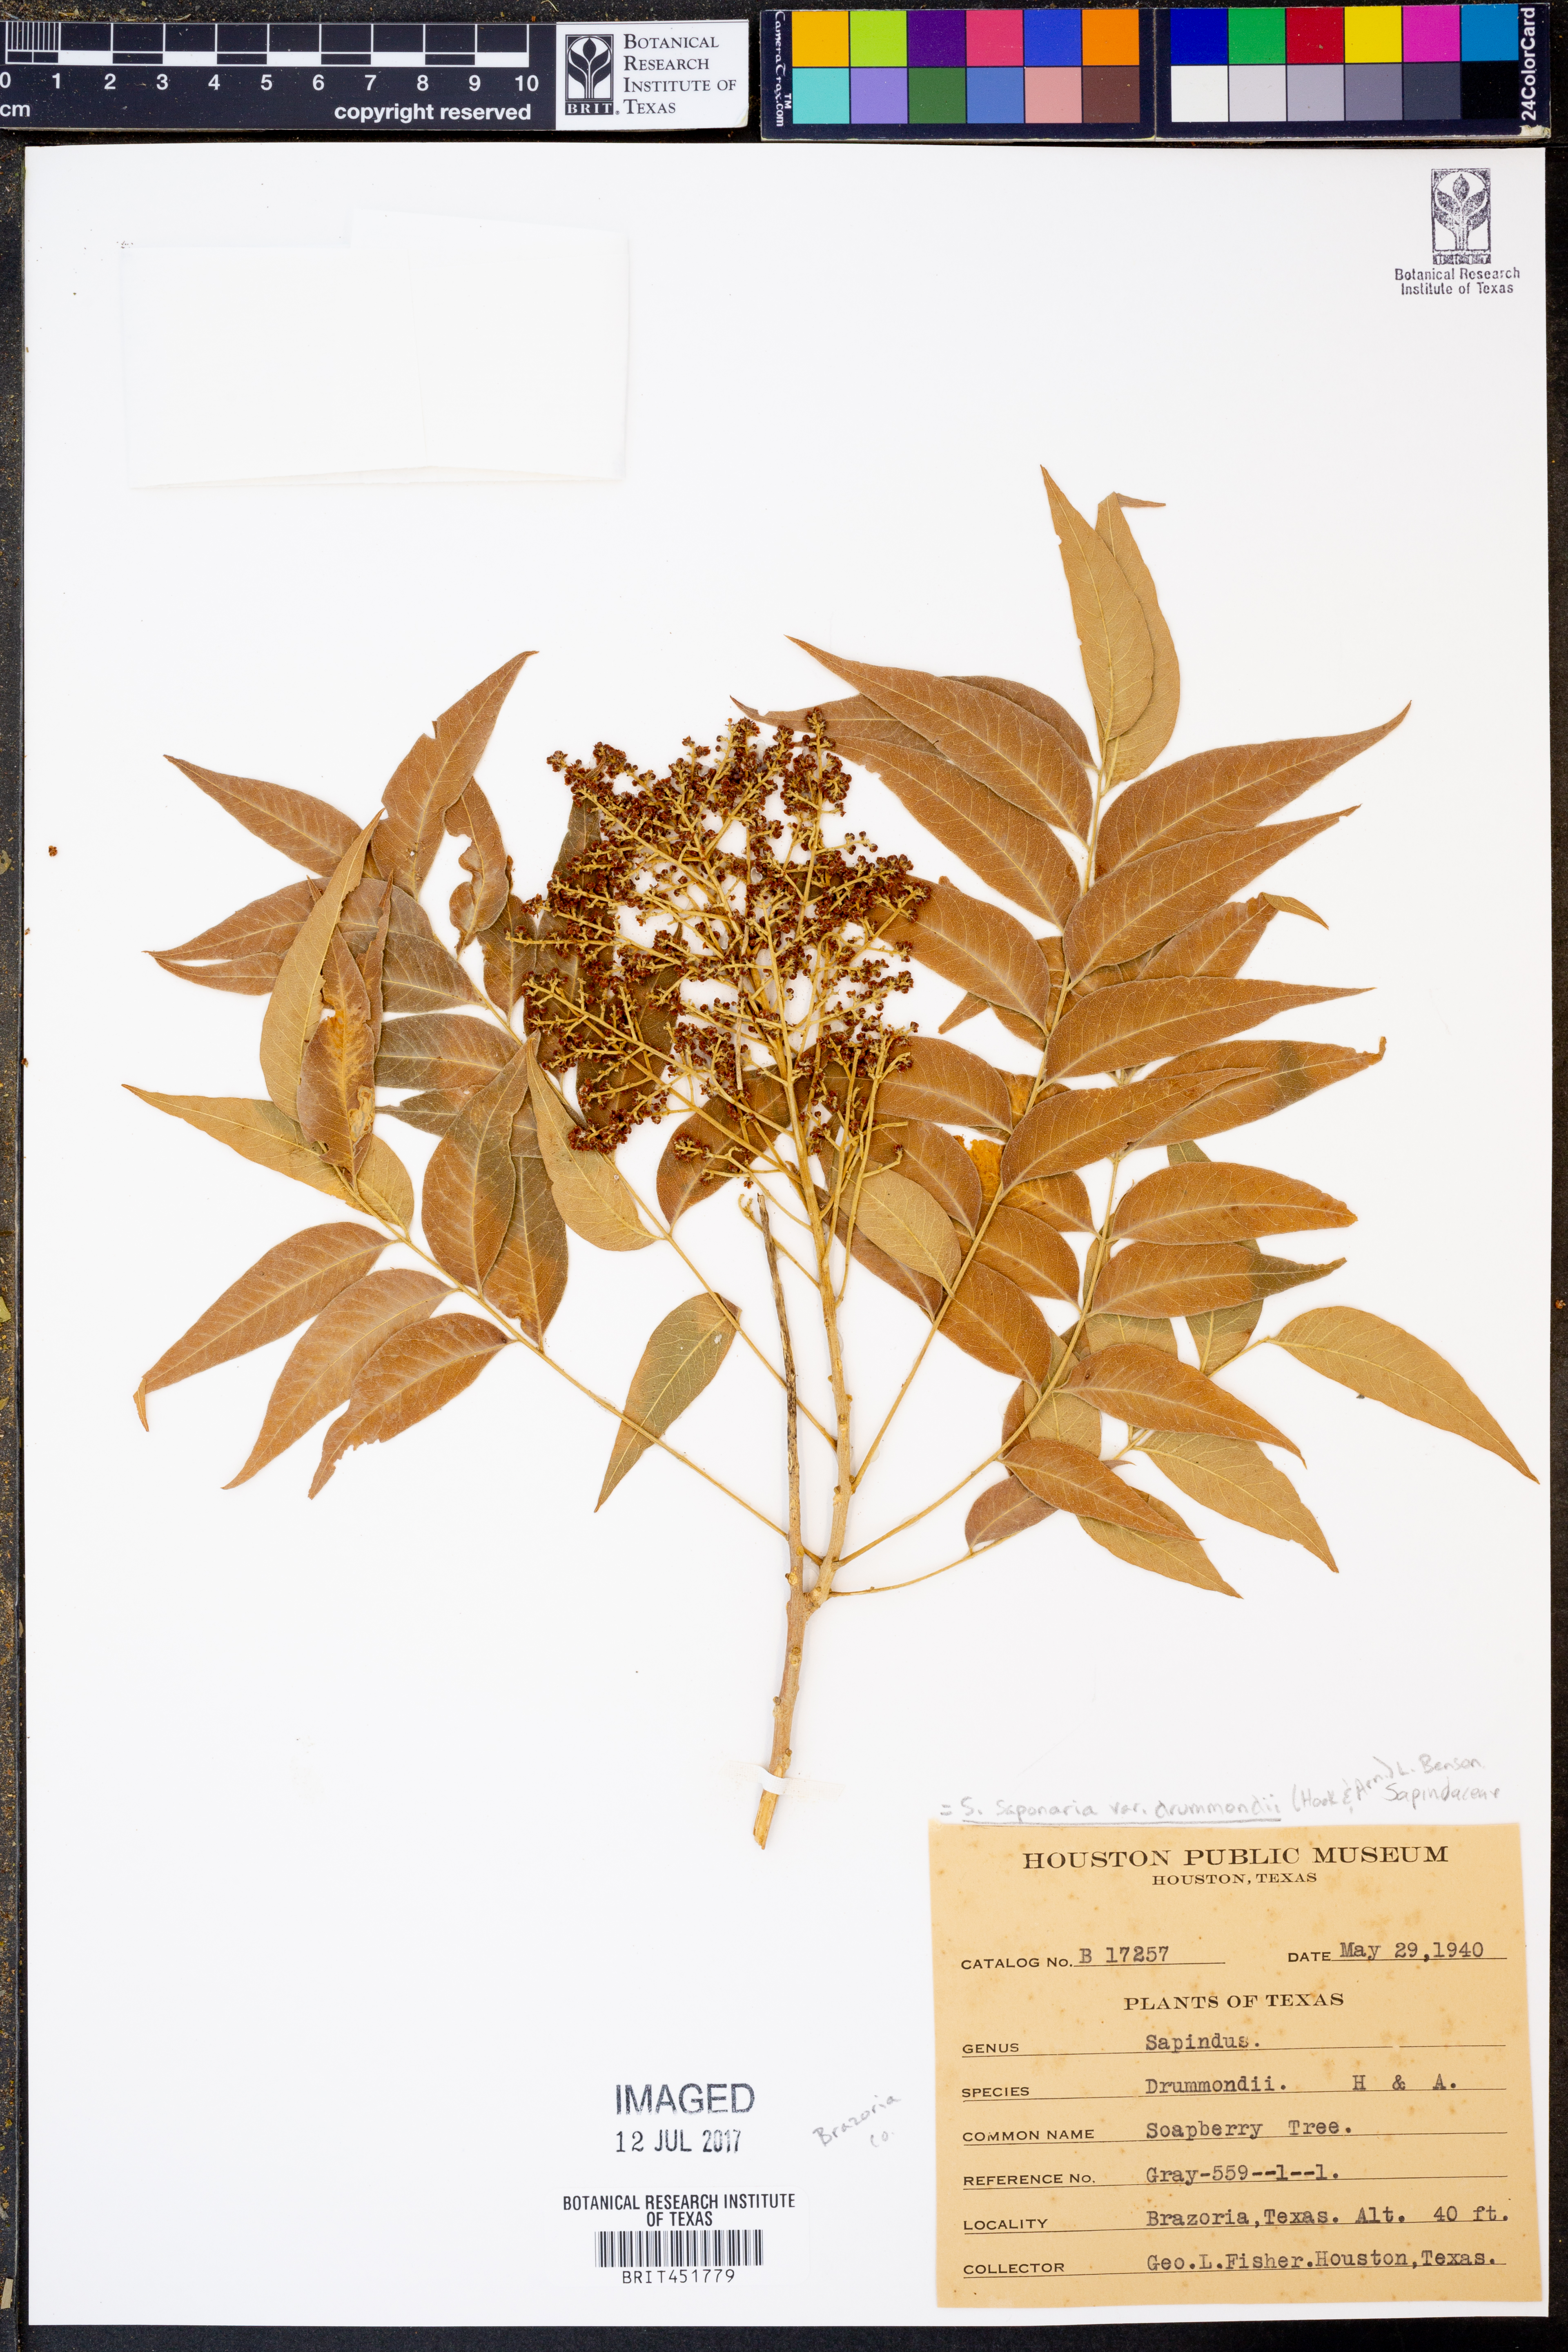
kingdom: Plantae
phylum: Tracheophyta
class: Magnoliopsida
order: Sapindales
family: Sapindaceae
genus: Sapindus
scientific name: Sapindus drummondii
